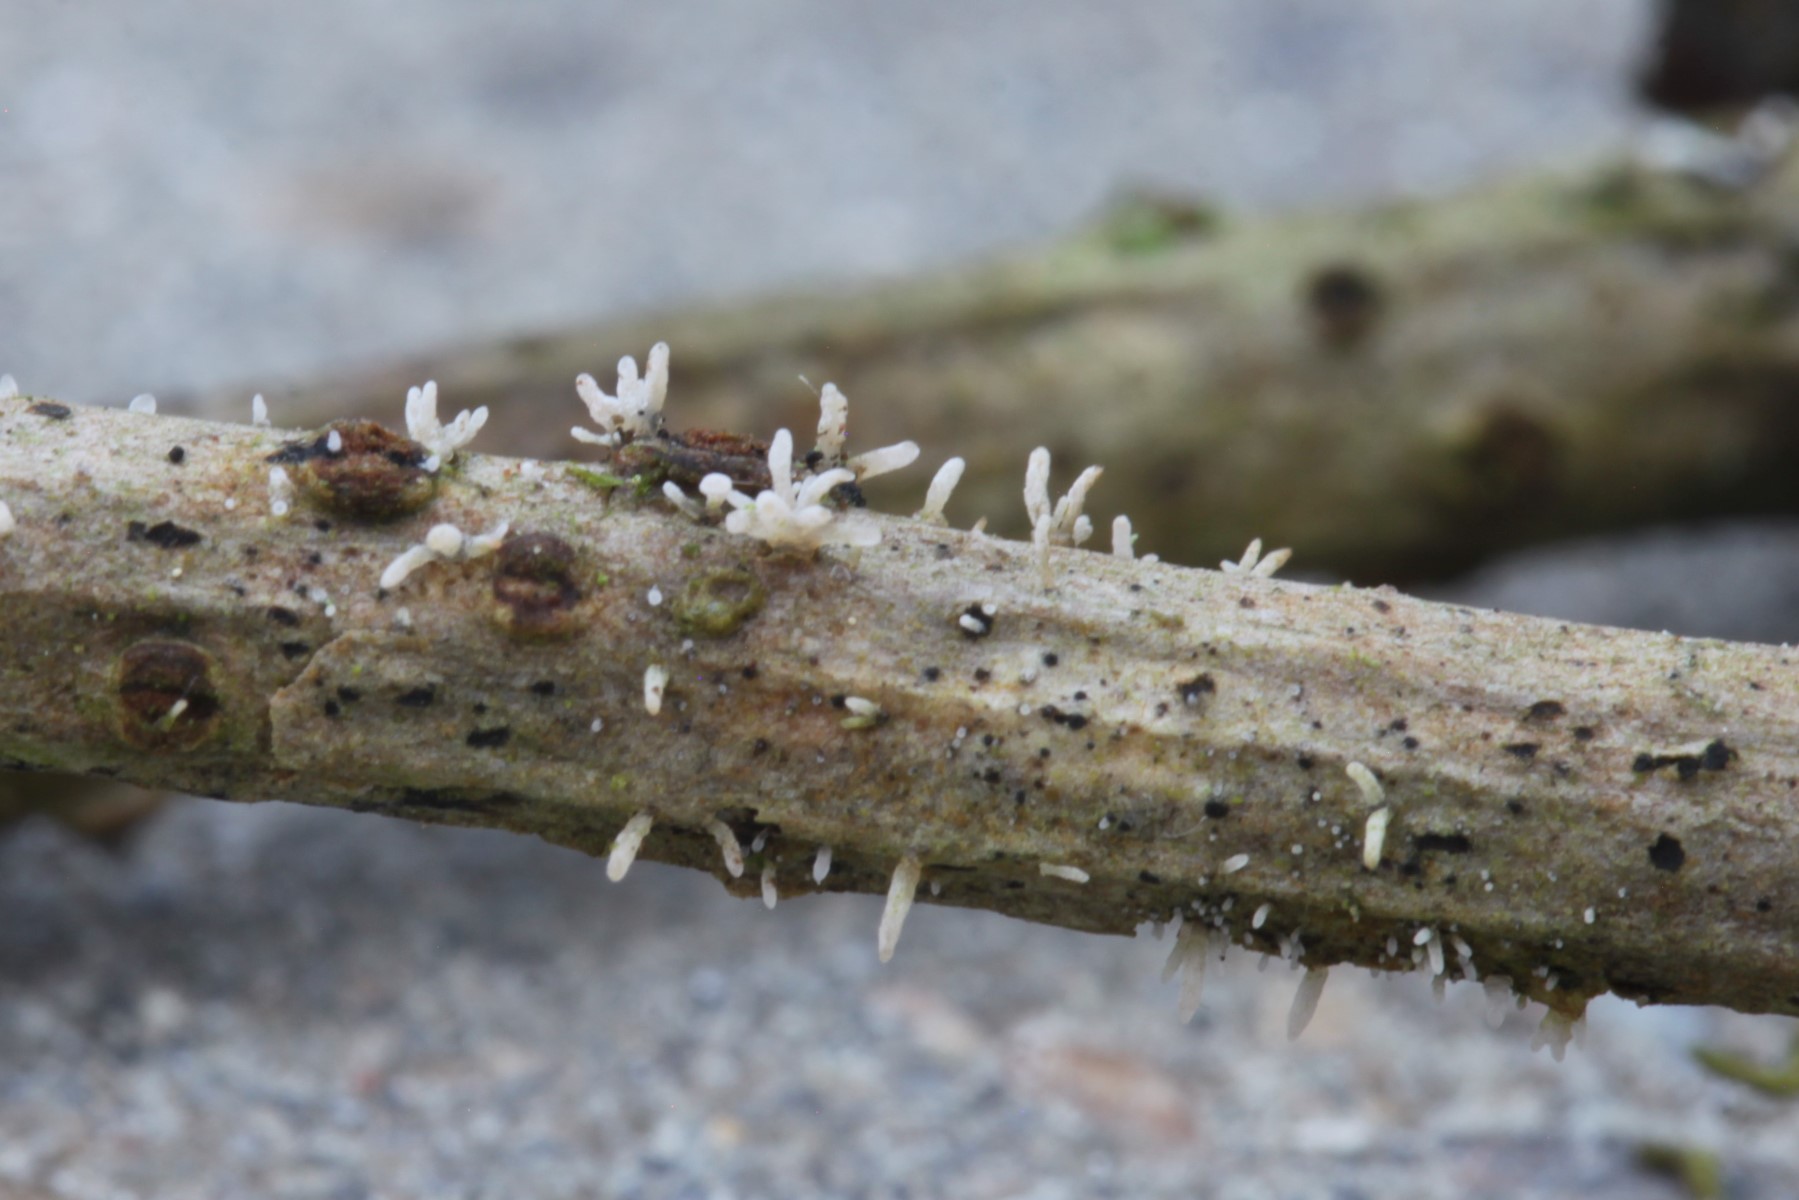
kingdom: Fungi
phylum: Ascomycota
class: Sordariomycetes
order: Hypocreales
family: Cordycipitaceae
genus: Isaria
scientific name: Isaria friesii
